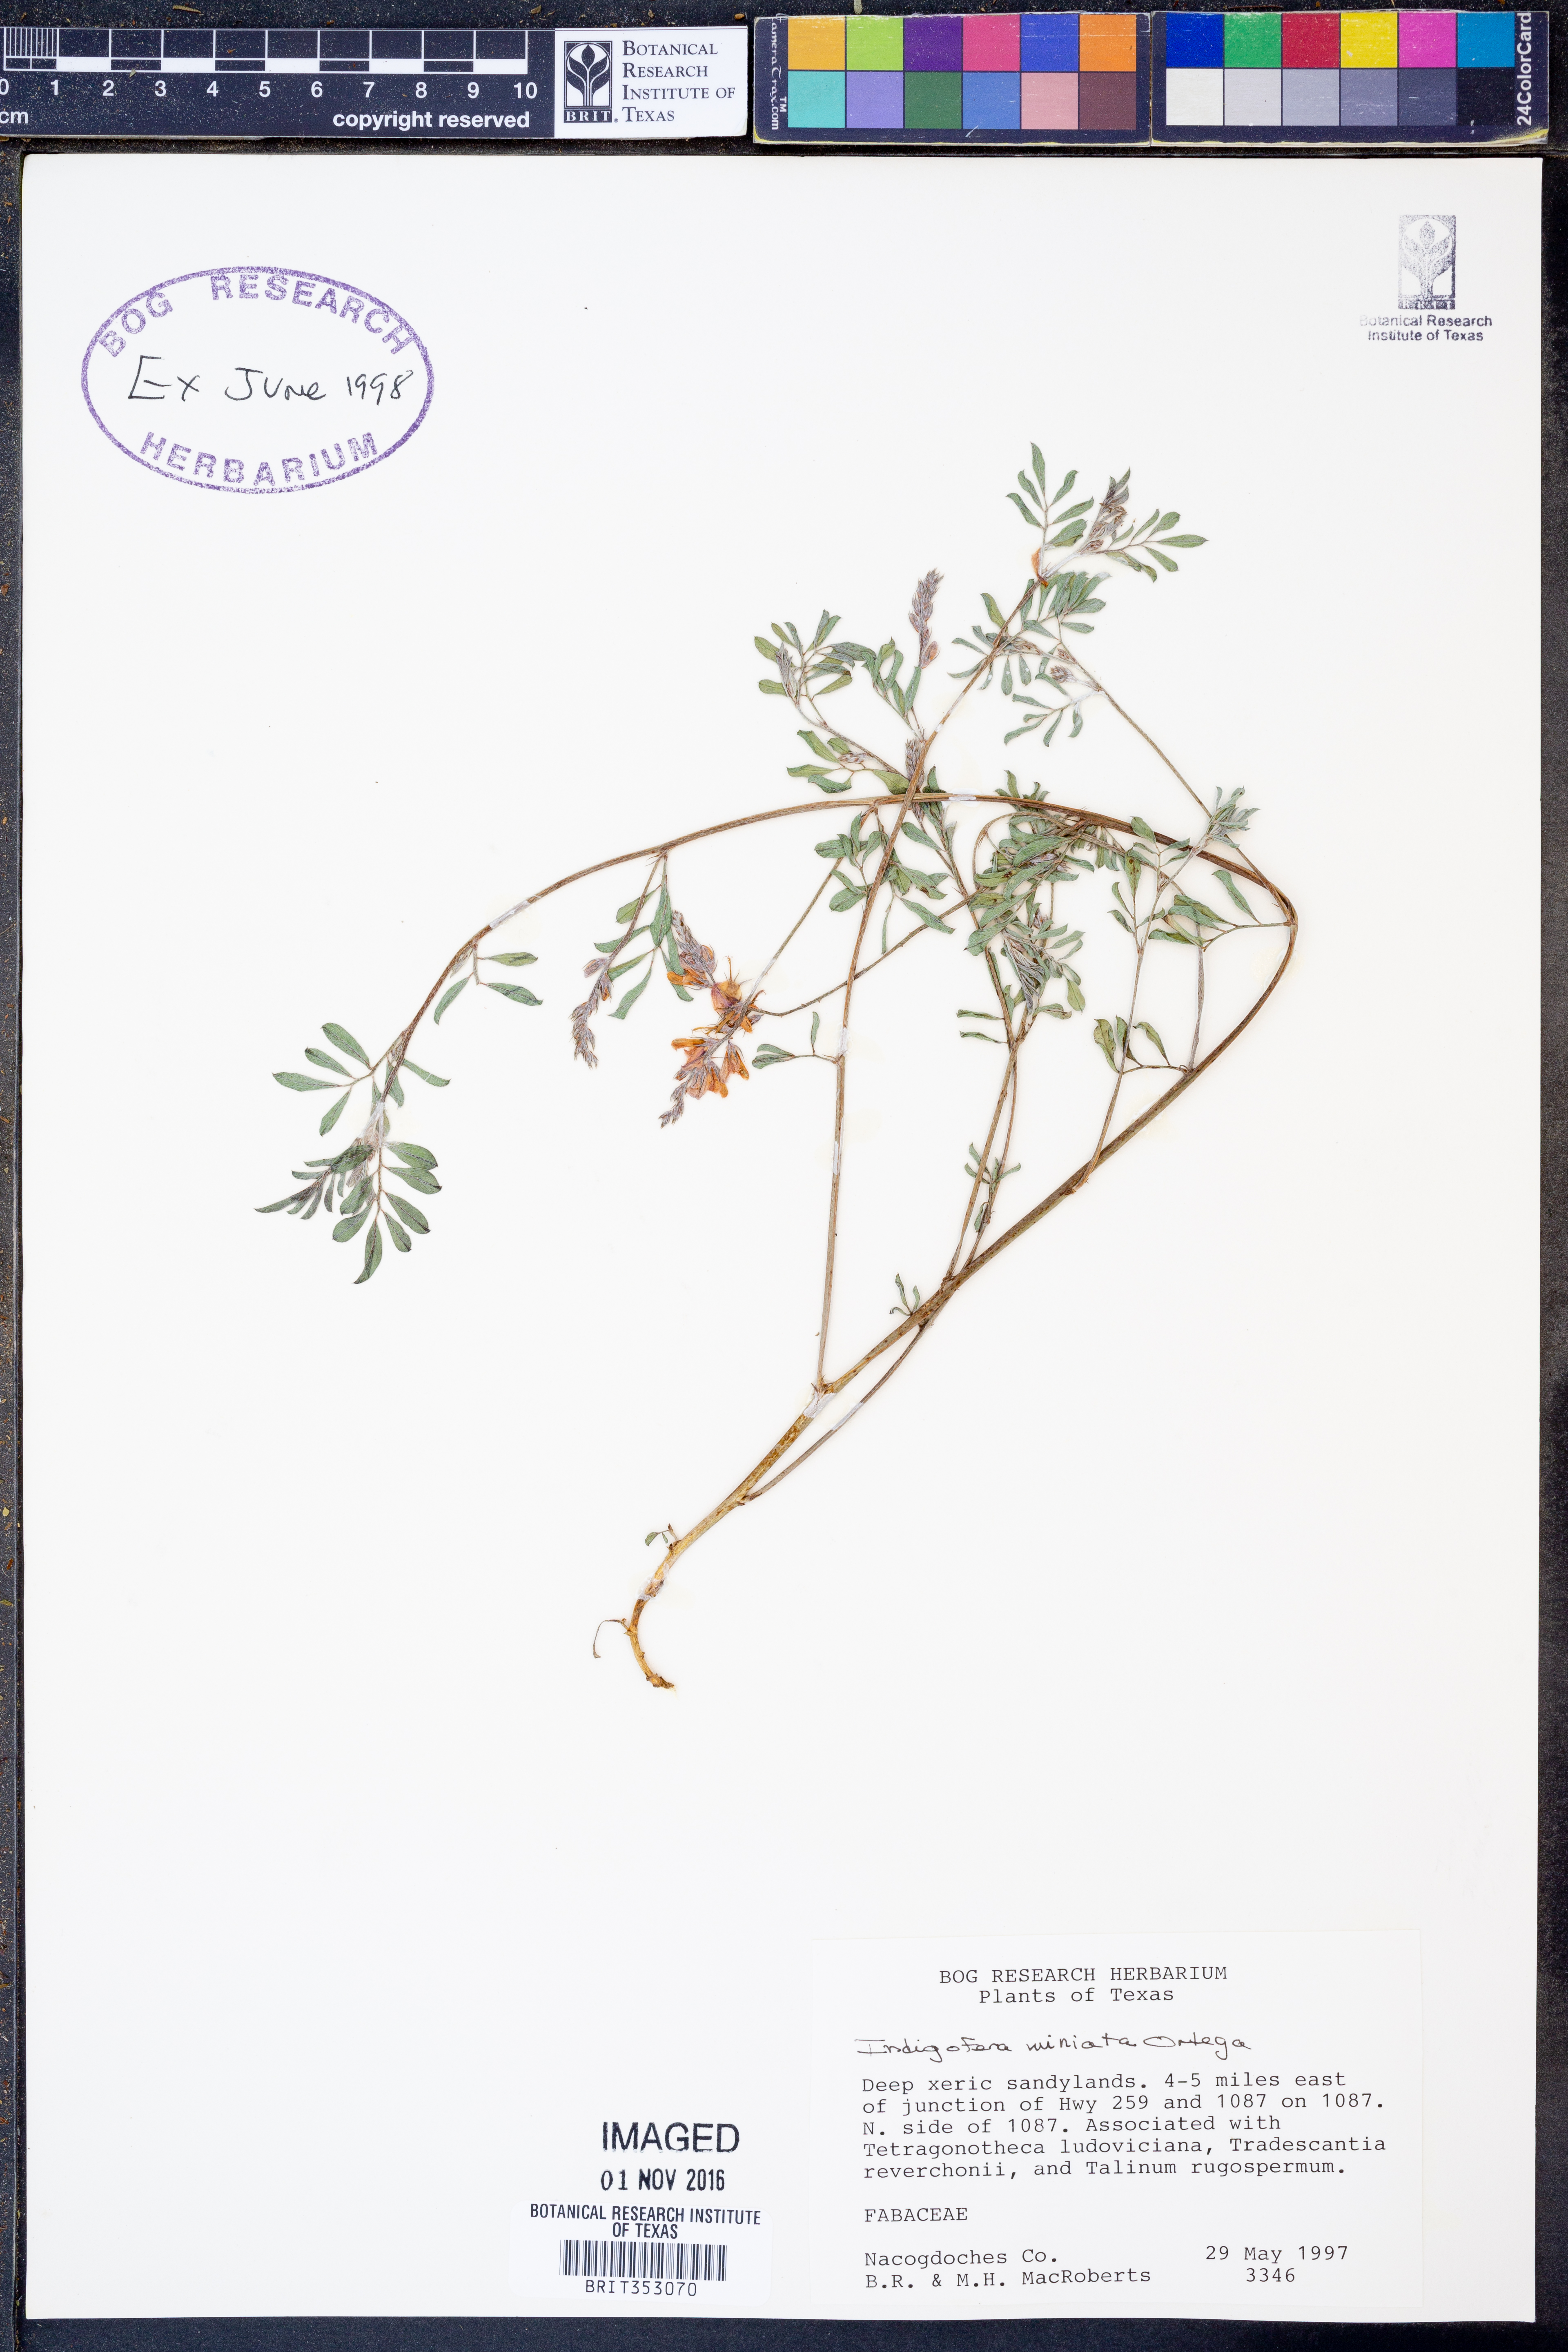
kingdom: Plantae
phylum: Tracheophyta
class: Magnoliopsida
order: Fabales
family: Fabaceae
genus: Indigofera
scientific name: Indigofera miniata
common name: Coast indigo
